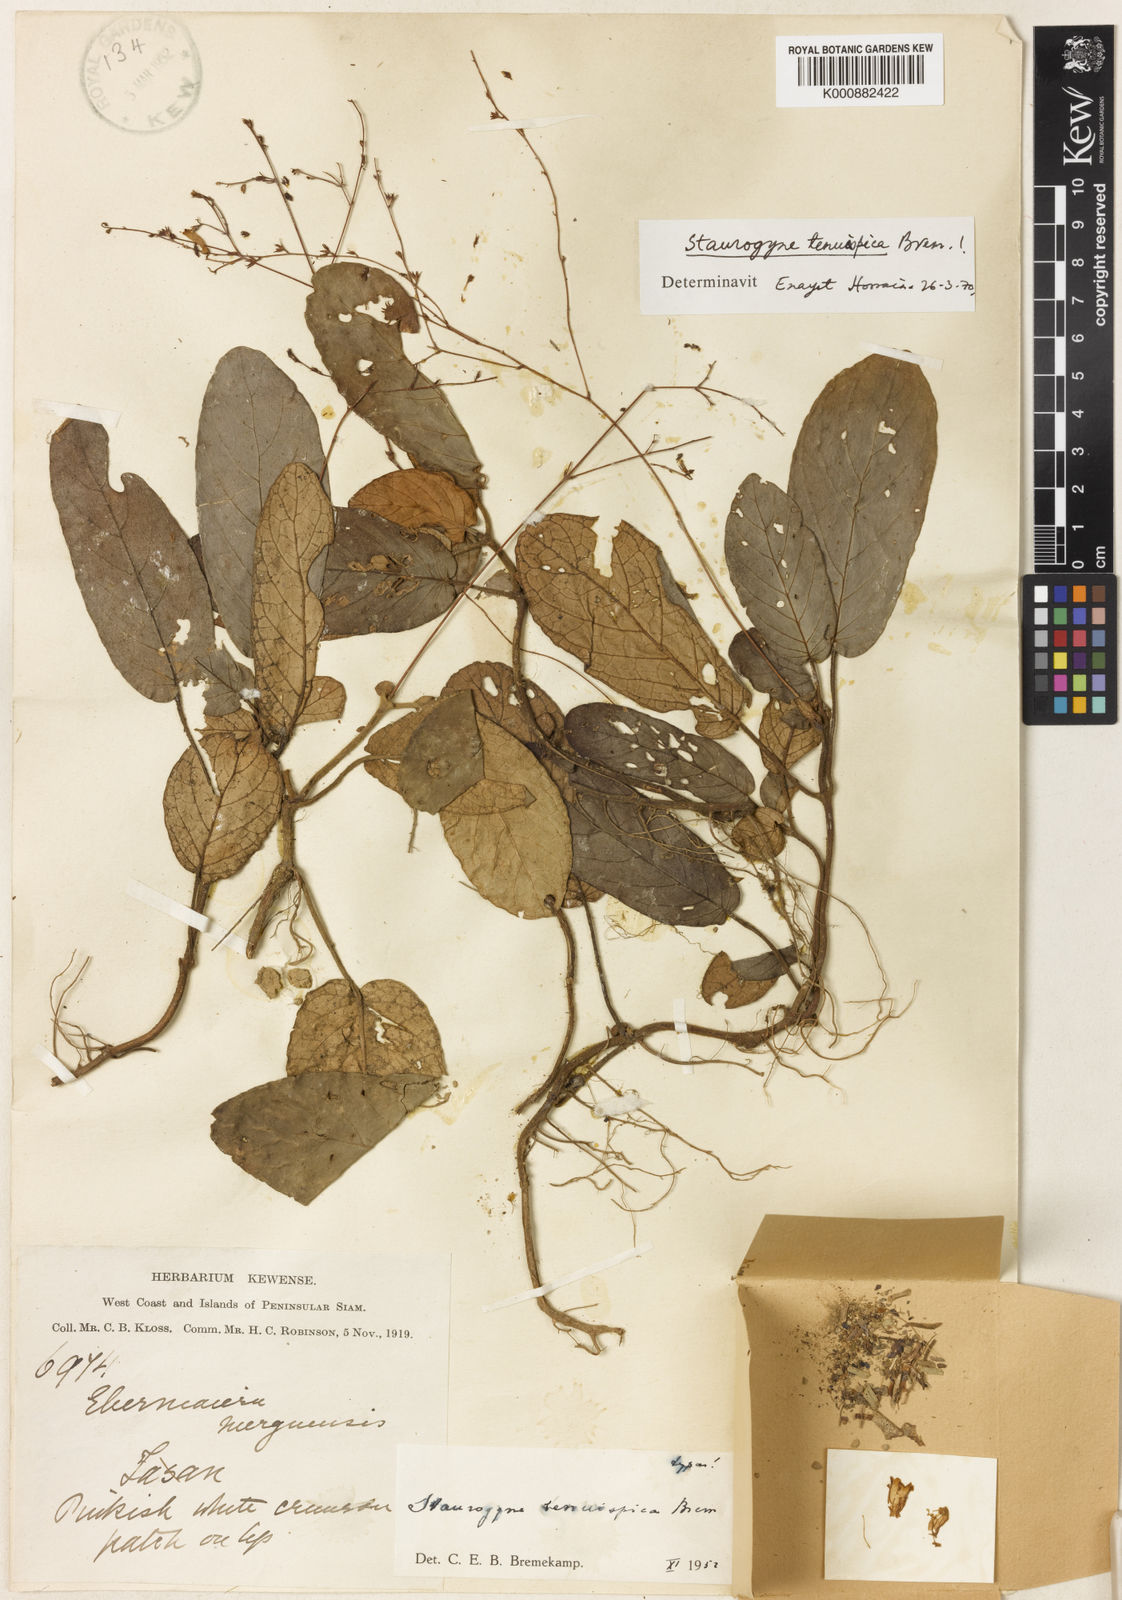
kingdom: Plantae
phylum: Tracheophyta
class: Magnoliopsida
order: Lamiales
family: Acanthaceae
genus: Staurogyne
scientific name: Staurogyne tenuispica
